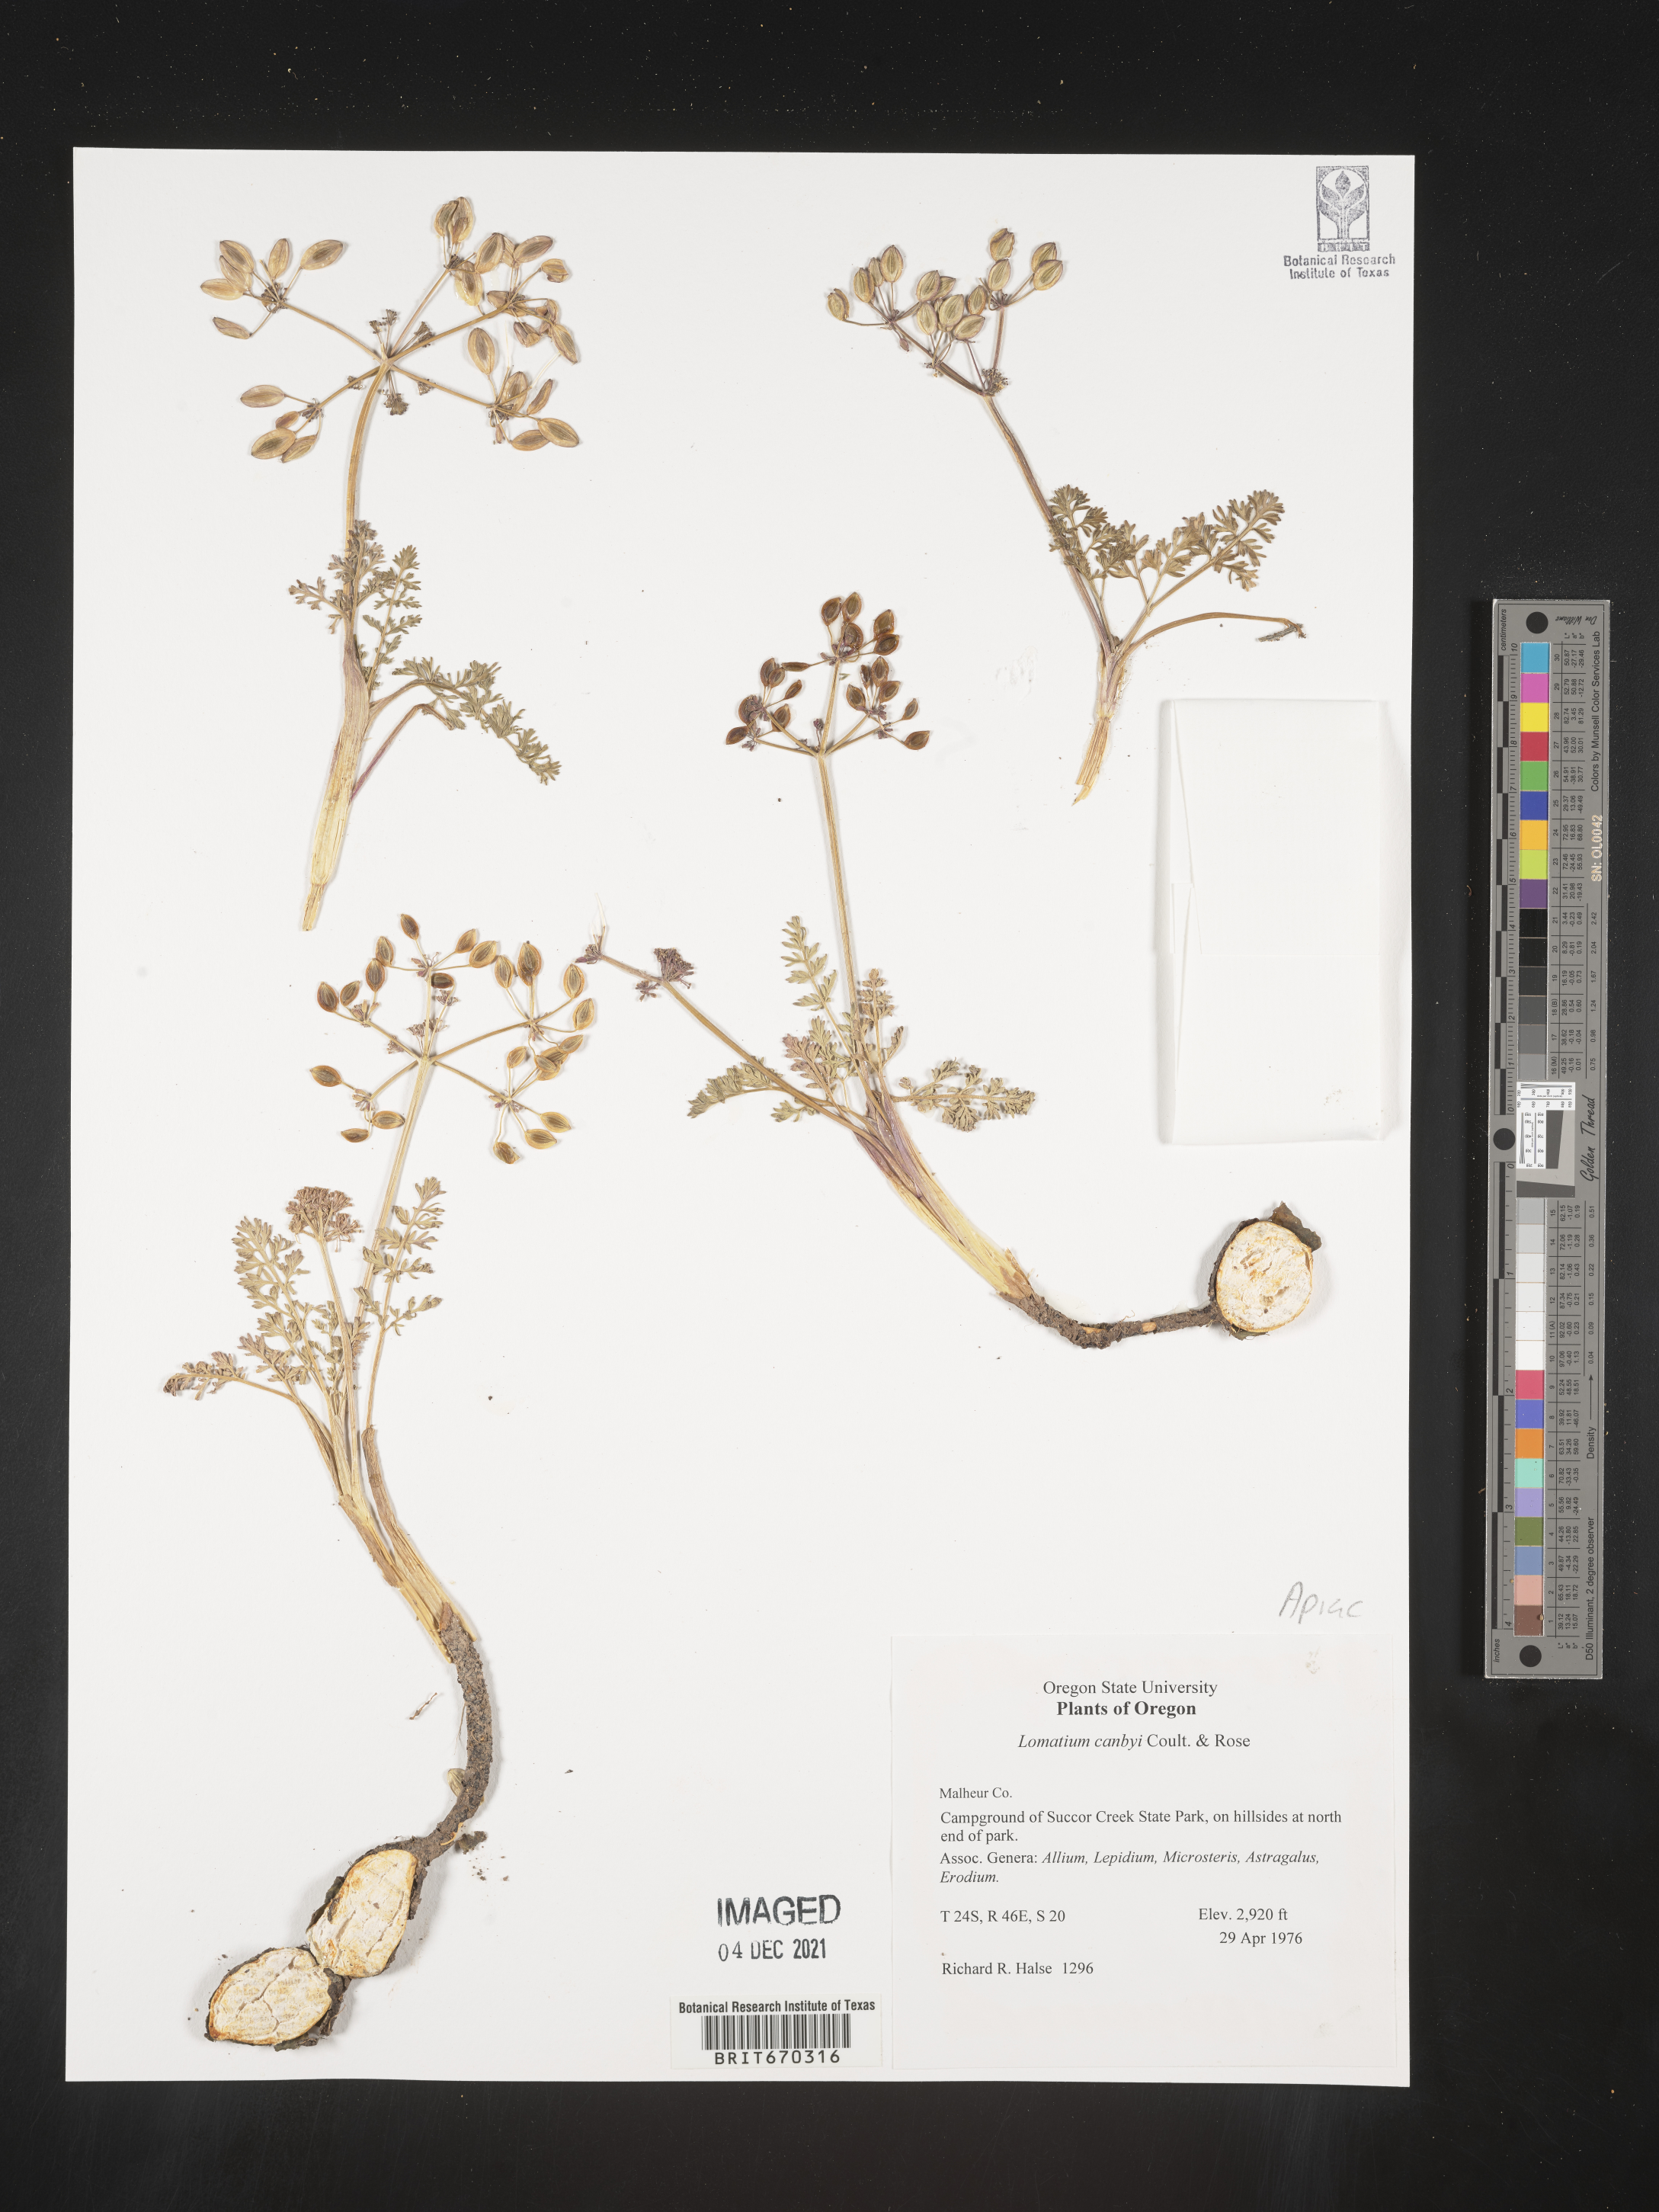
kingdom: Plantae
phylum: Tracheophyta
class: Magnoliopsida
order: Apiales
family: Apiaceae
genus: Lomatium
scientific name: Lomatium canbyi
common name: Chucklusa
